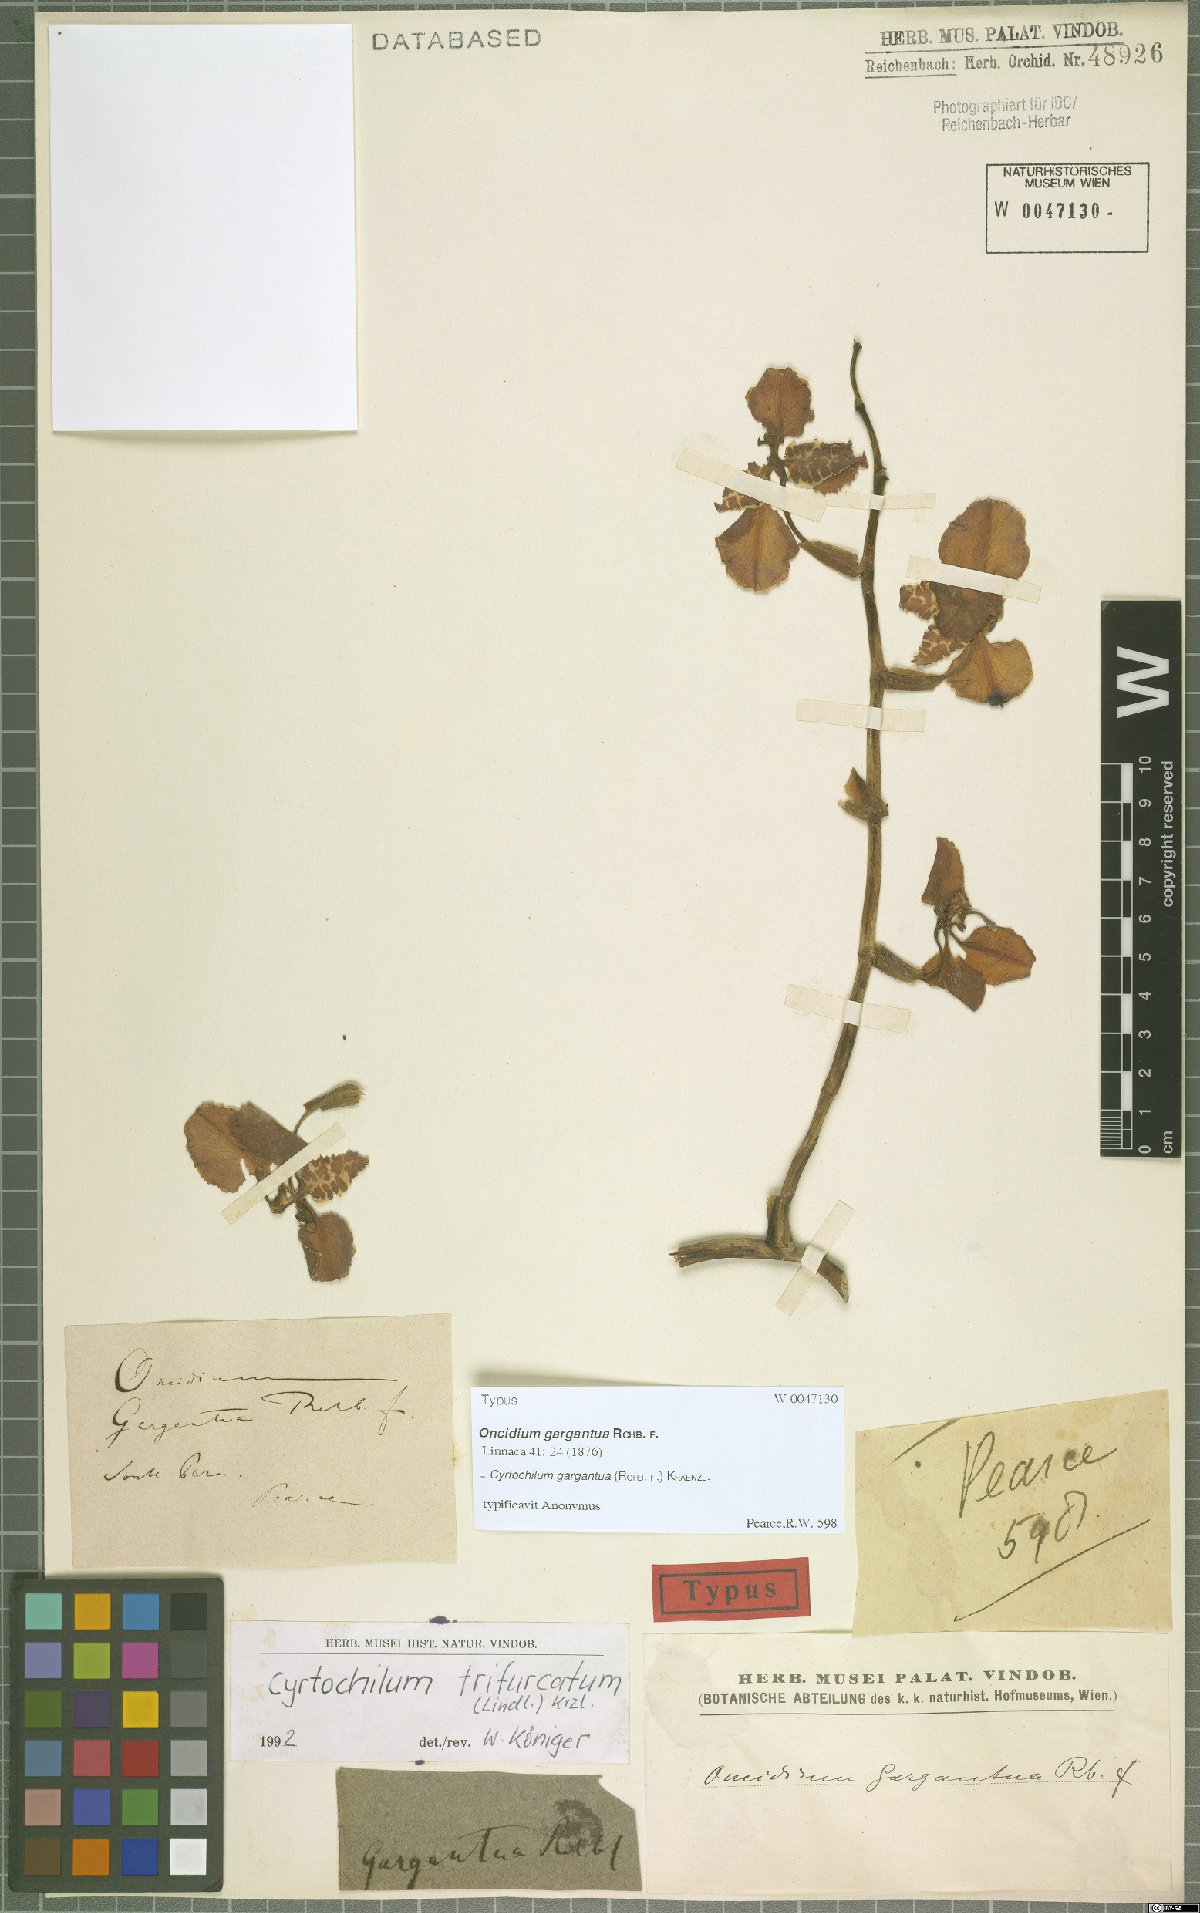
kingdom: Plantae
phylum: Tracheophyta
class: Liliopsida
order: Asparagales
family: Orchidaceae
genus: Cyrtochilum
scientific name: Cyrtochilum gargantua
